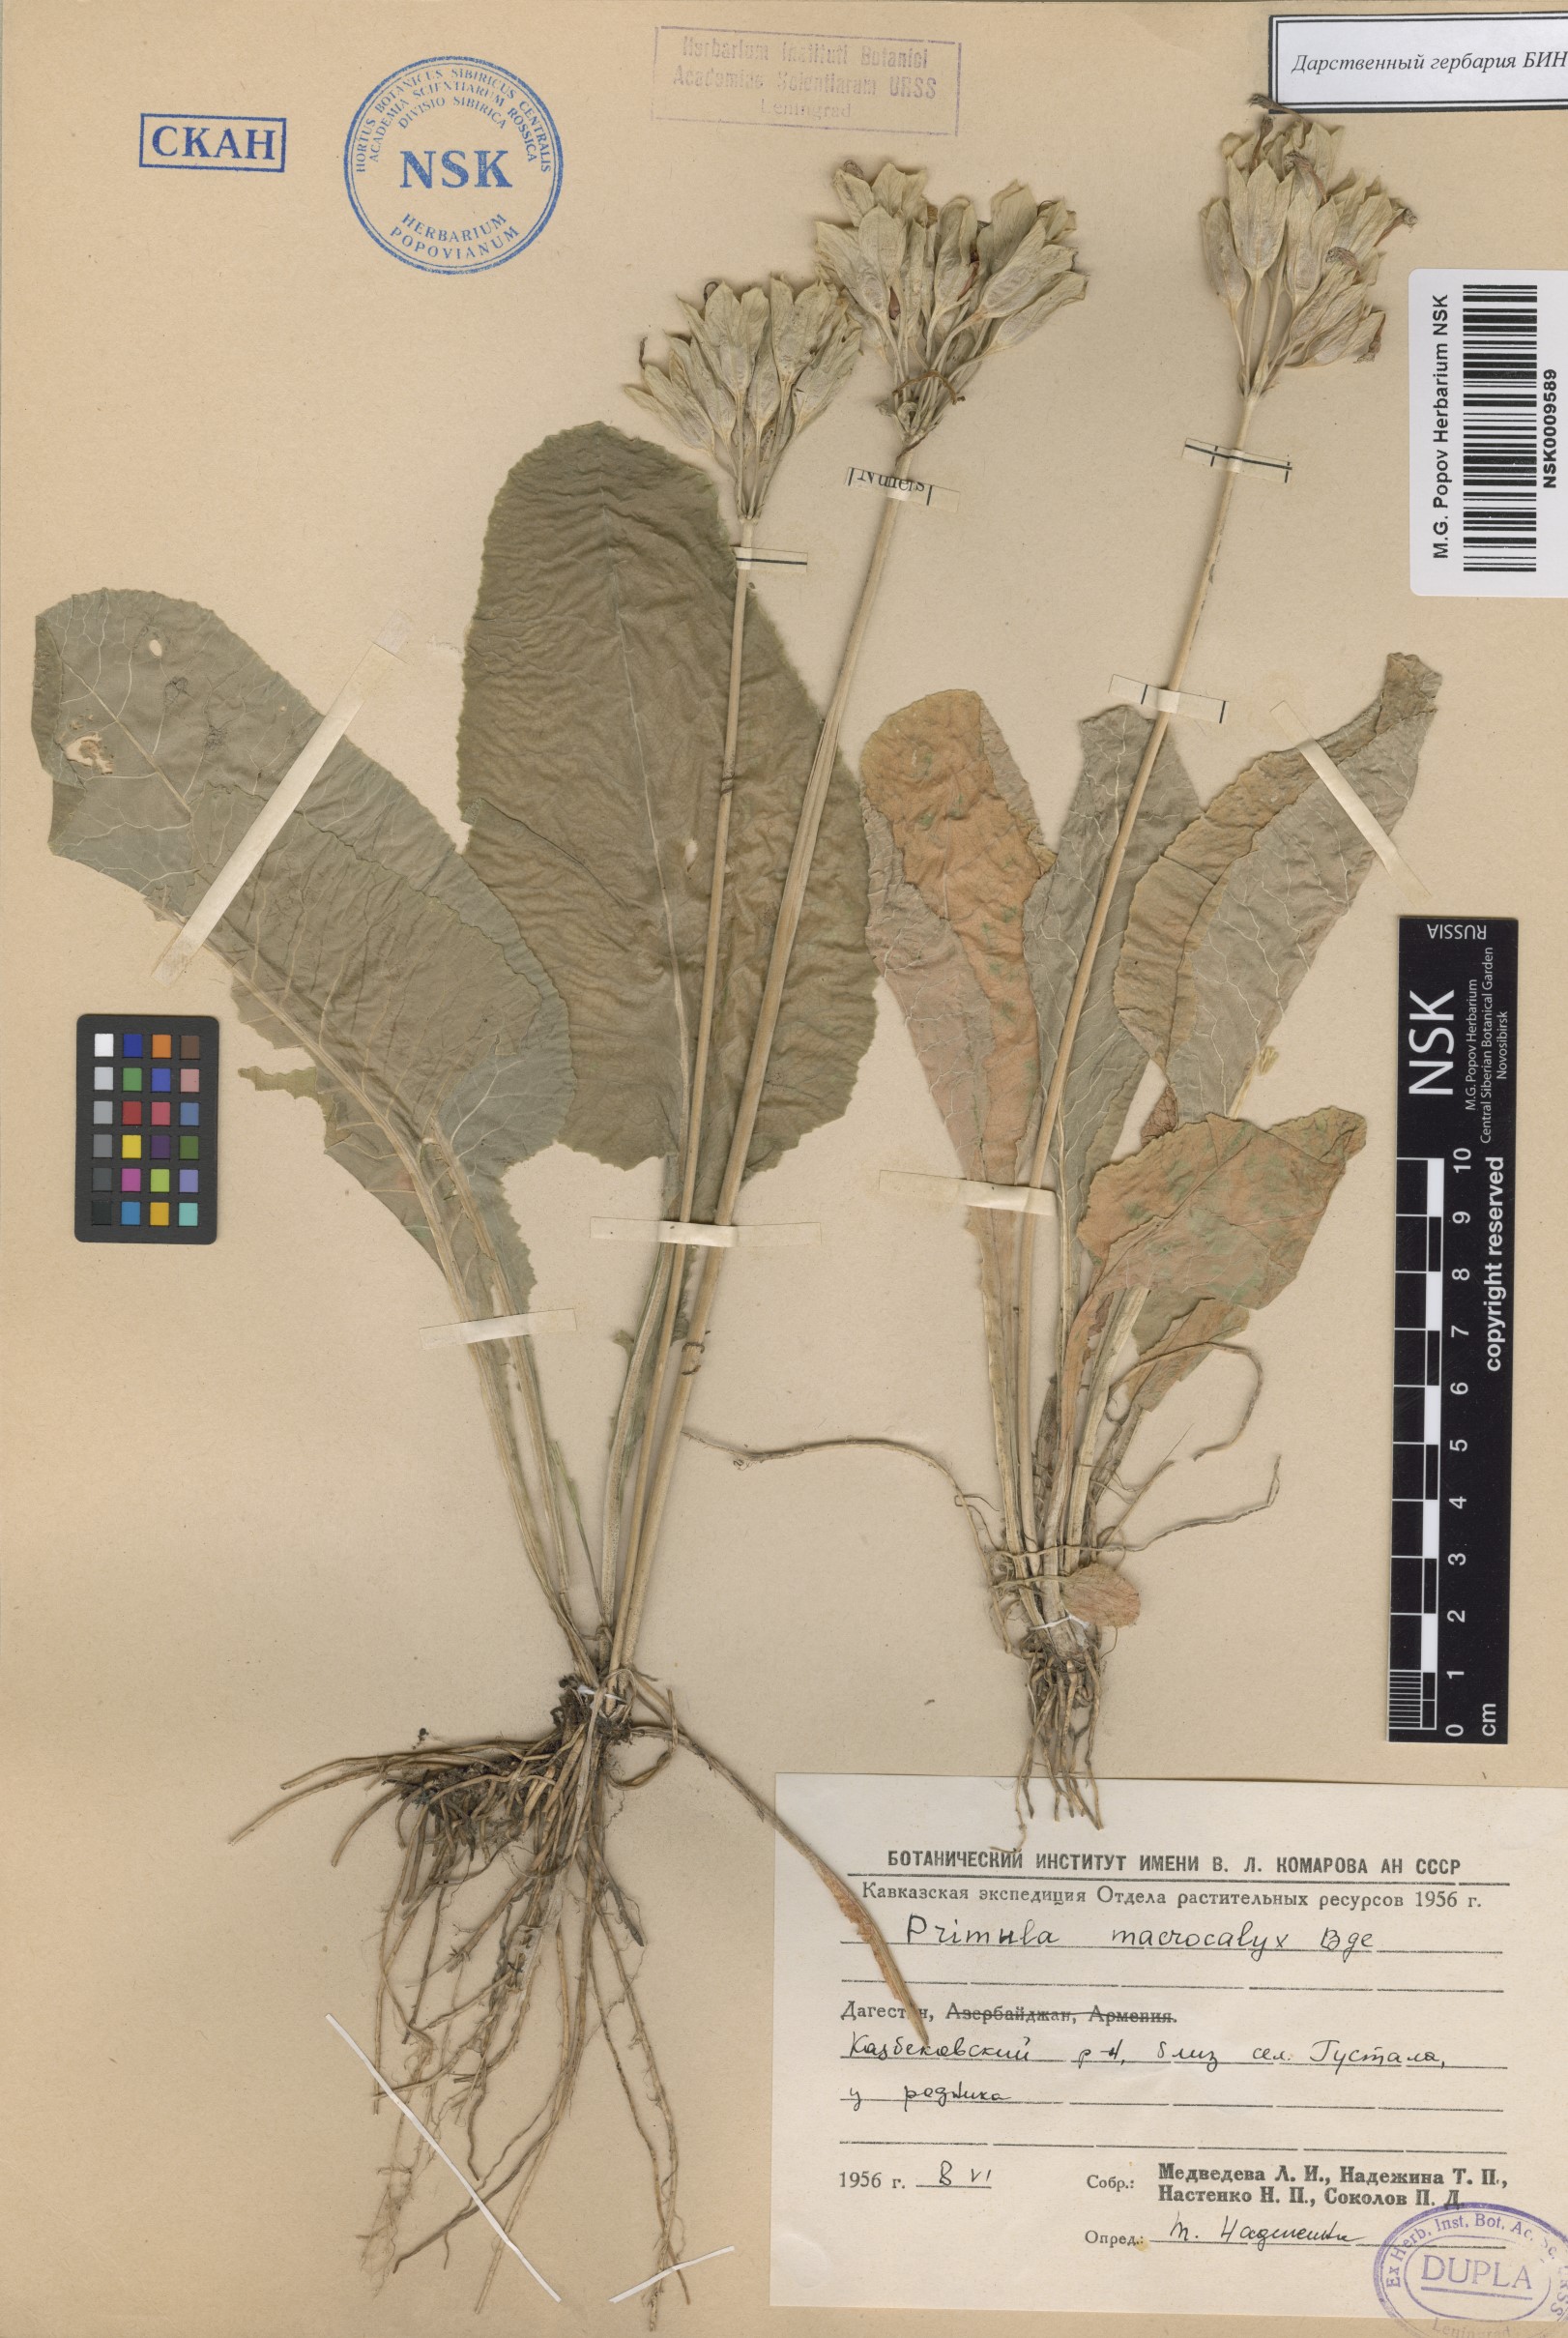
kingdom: Plantae
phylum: Tracheophyta
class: Magnoliopsida
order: Ericales
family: Primulaceae
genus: Primula
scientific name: Primula veris
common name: Cowslip
